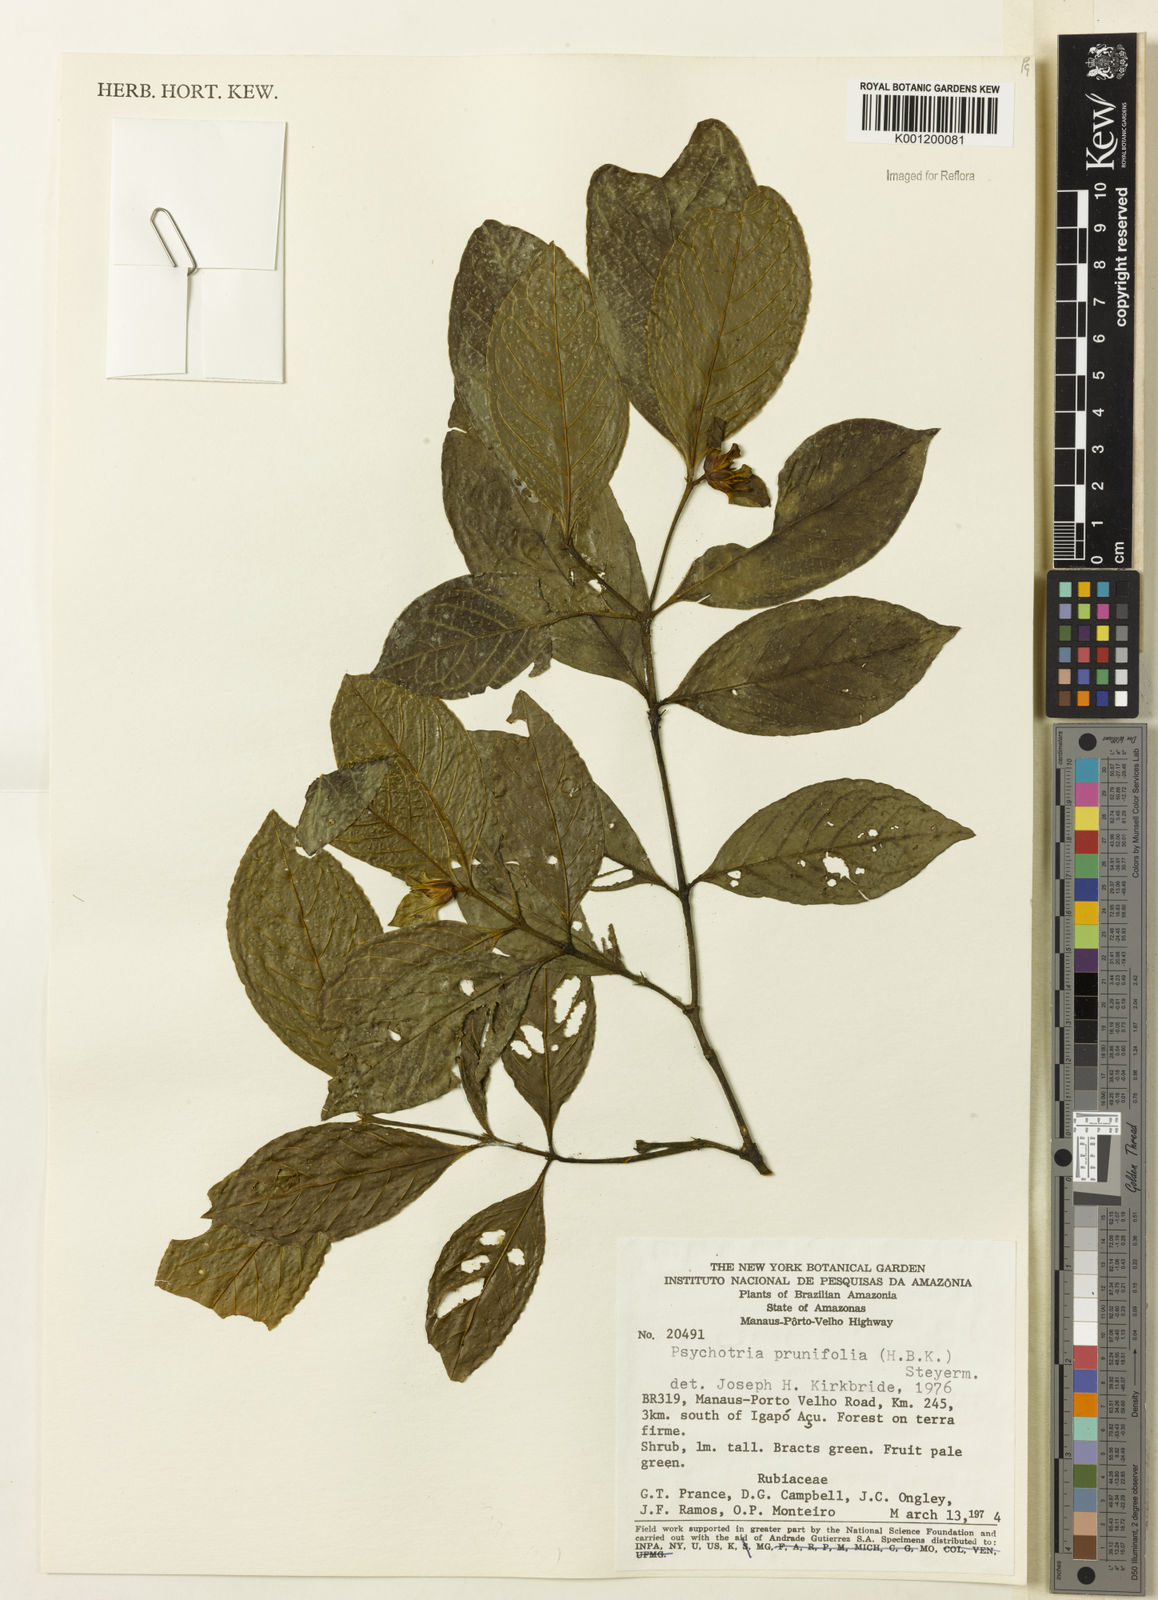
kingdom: Plantae
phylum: Tracheophyta
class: Magnoliopsida
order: Gentianales
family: Rubiaceae
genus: Palicourea
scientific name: Palicourea prunifolia
